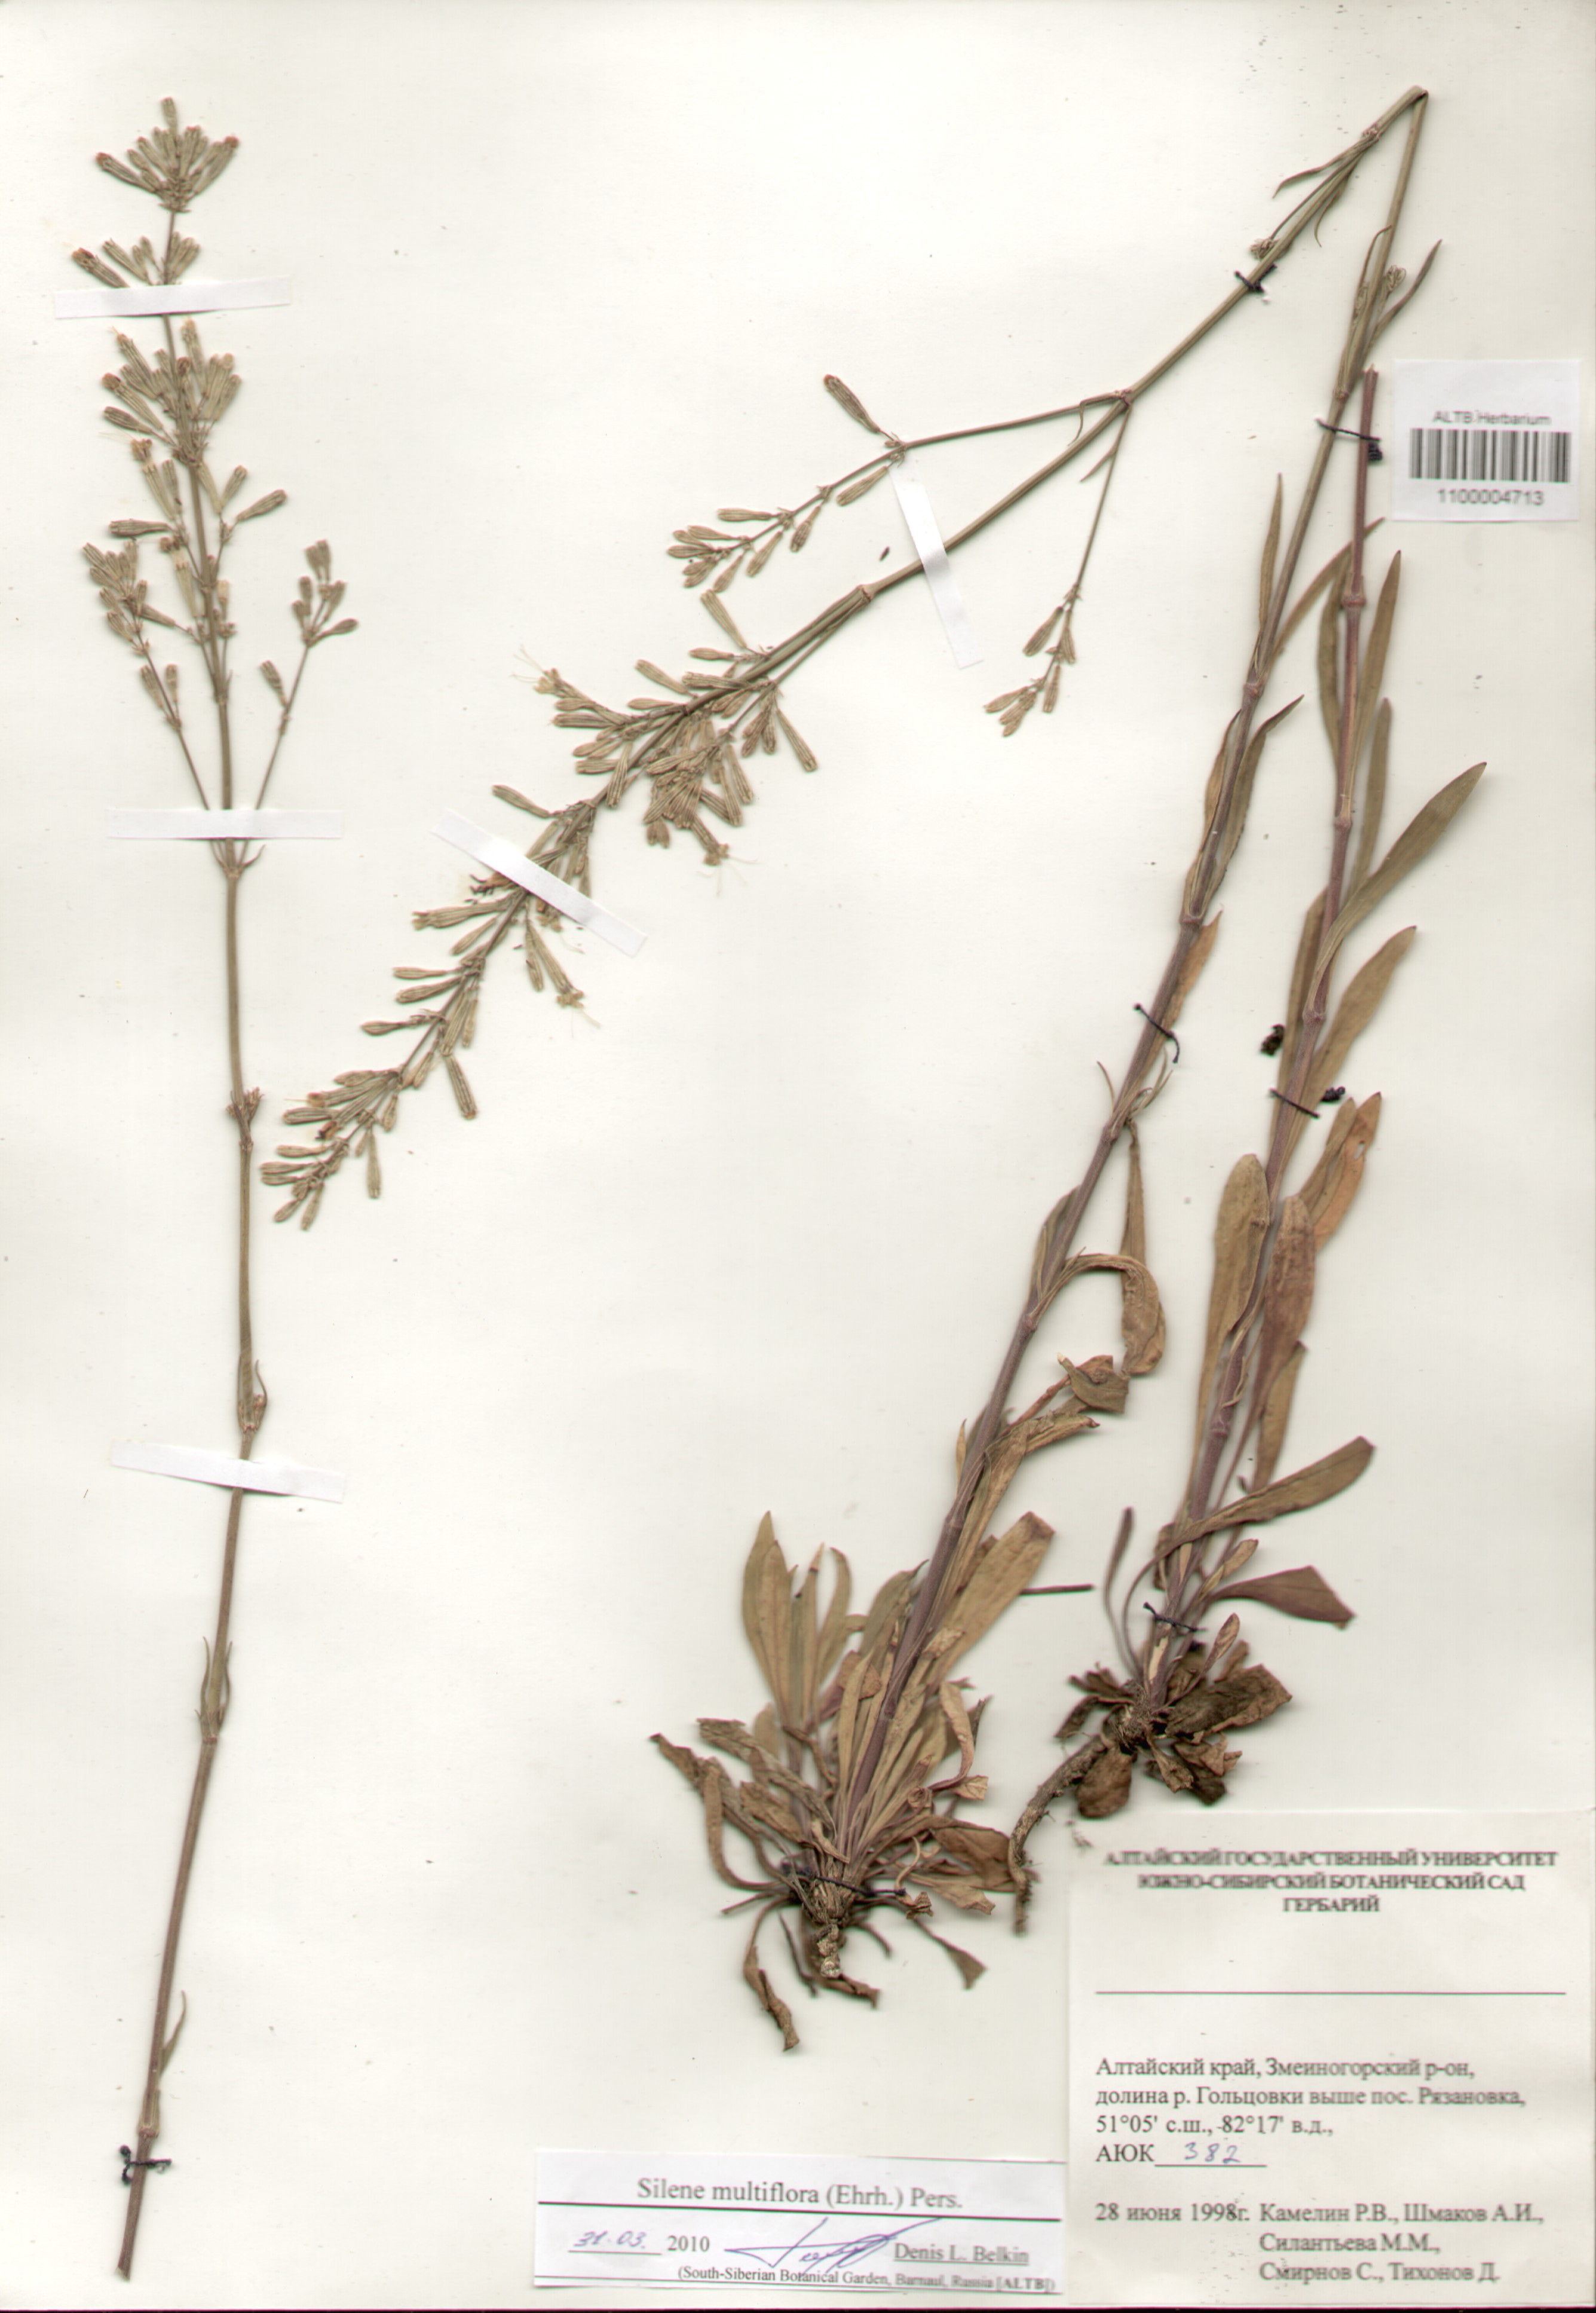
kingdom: Plantae
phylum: Tracheophyta
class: Magnoliopsida
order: Caryophyllales
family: Caryophyllaceae
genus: Silene
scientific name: Silene multiflora
